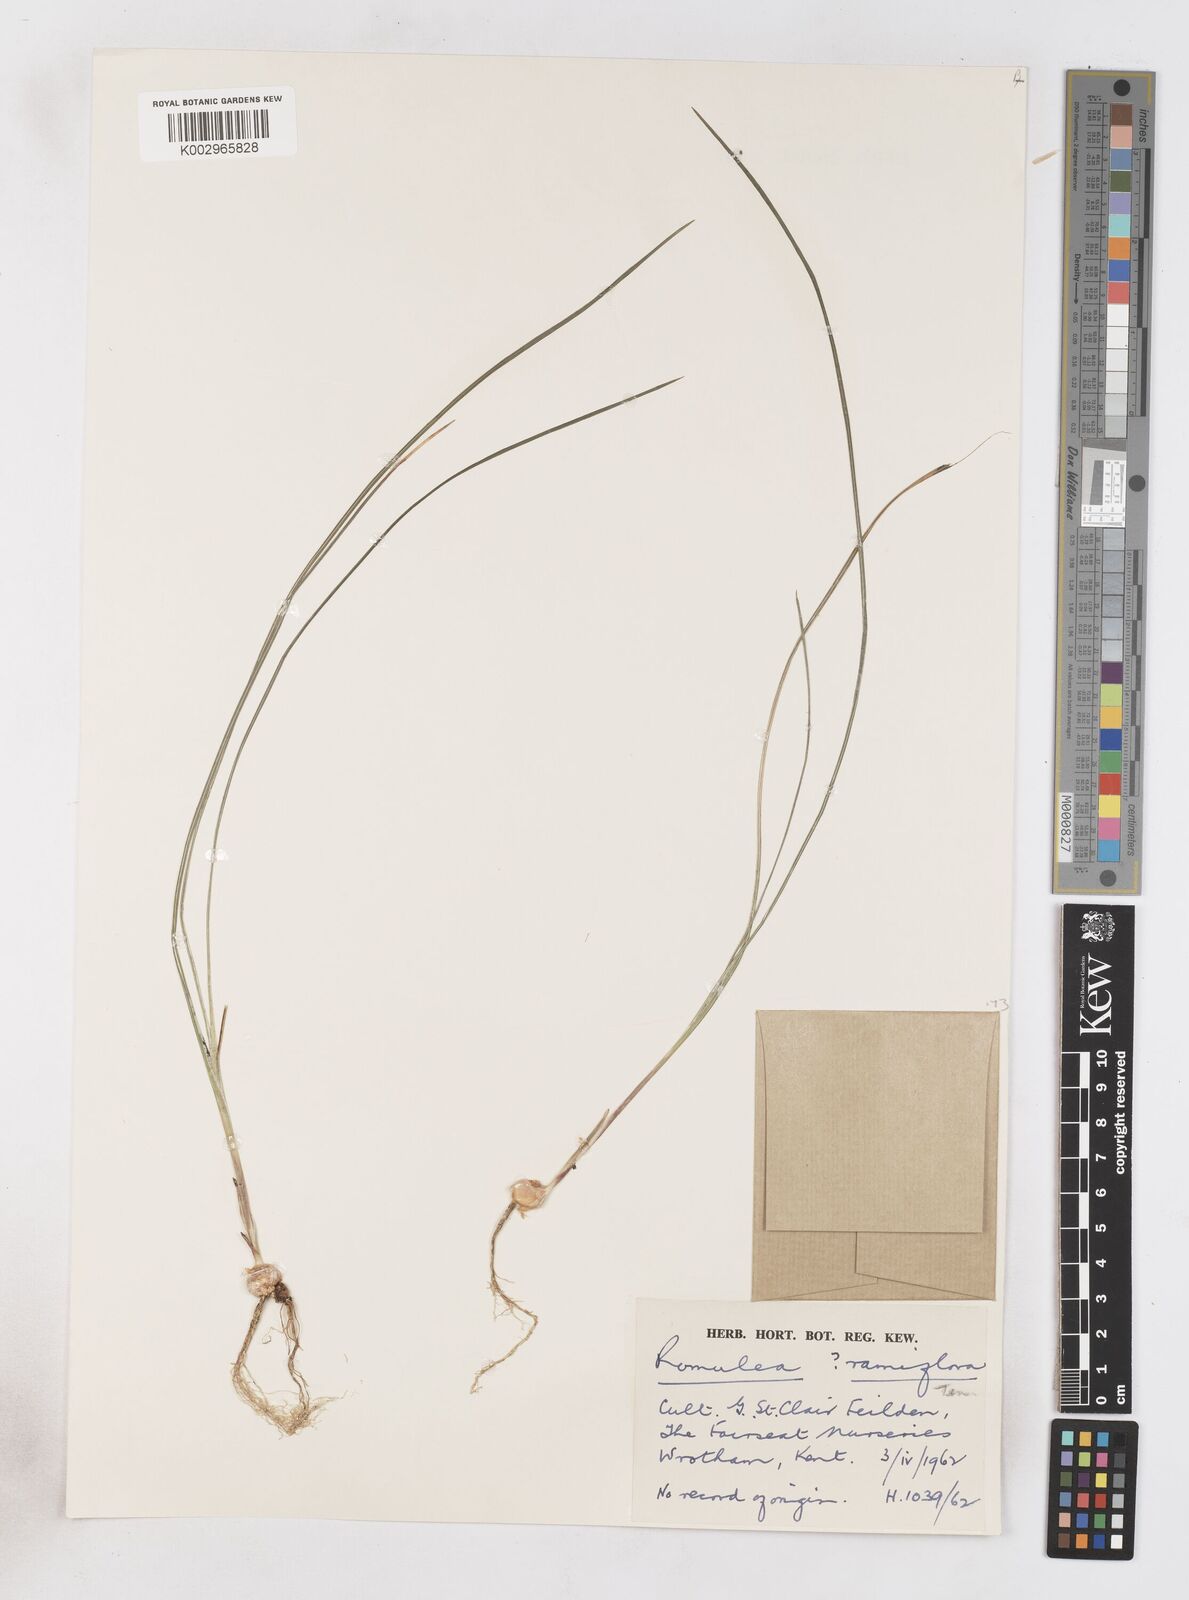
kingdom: Plantae
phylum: Tracheophyta
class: Liliopsida
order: Asparagales
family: Iridaceae
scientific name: Iridaceae
